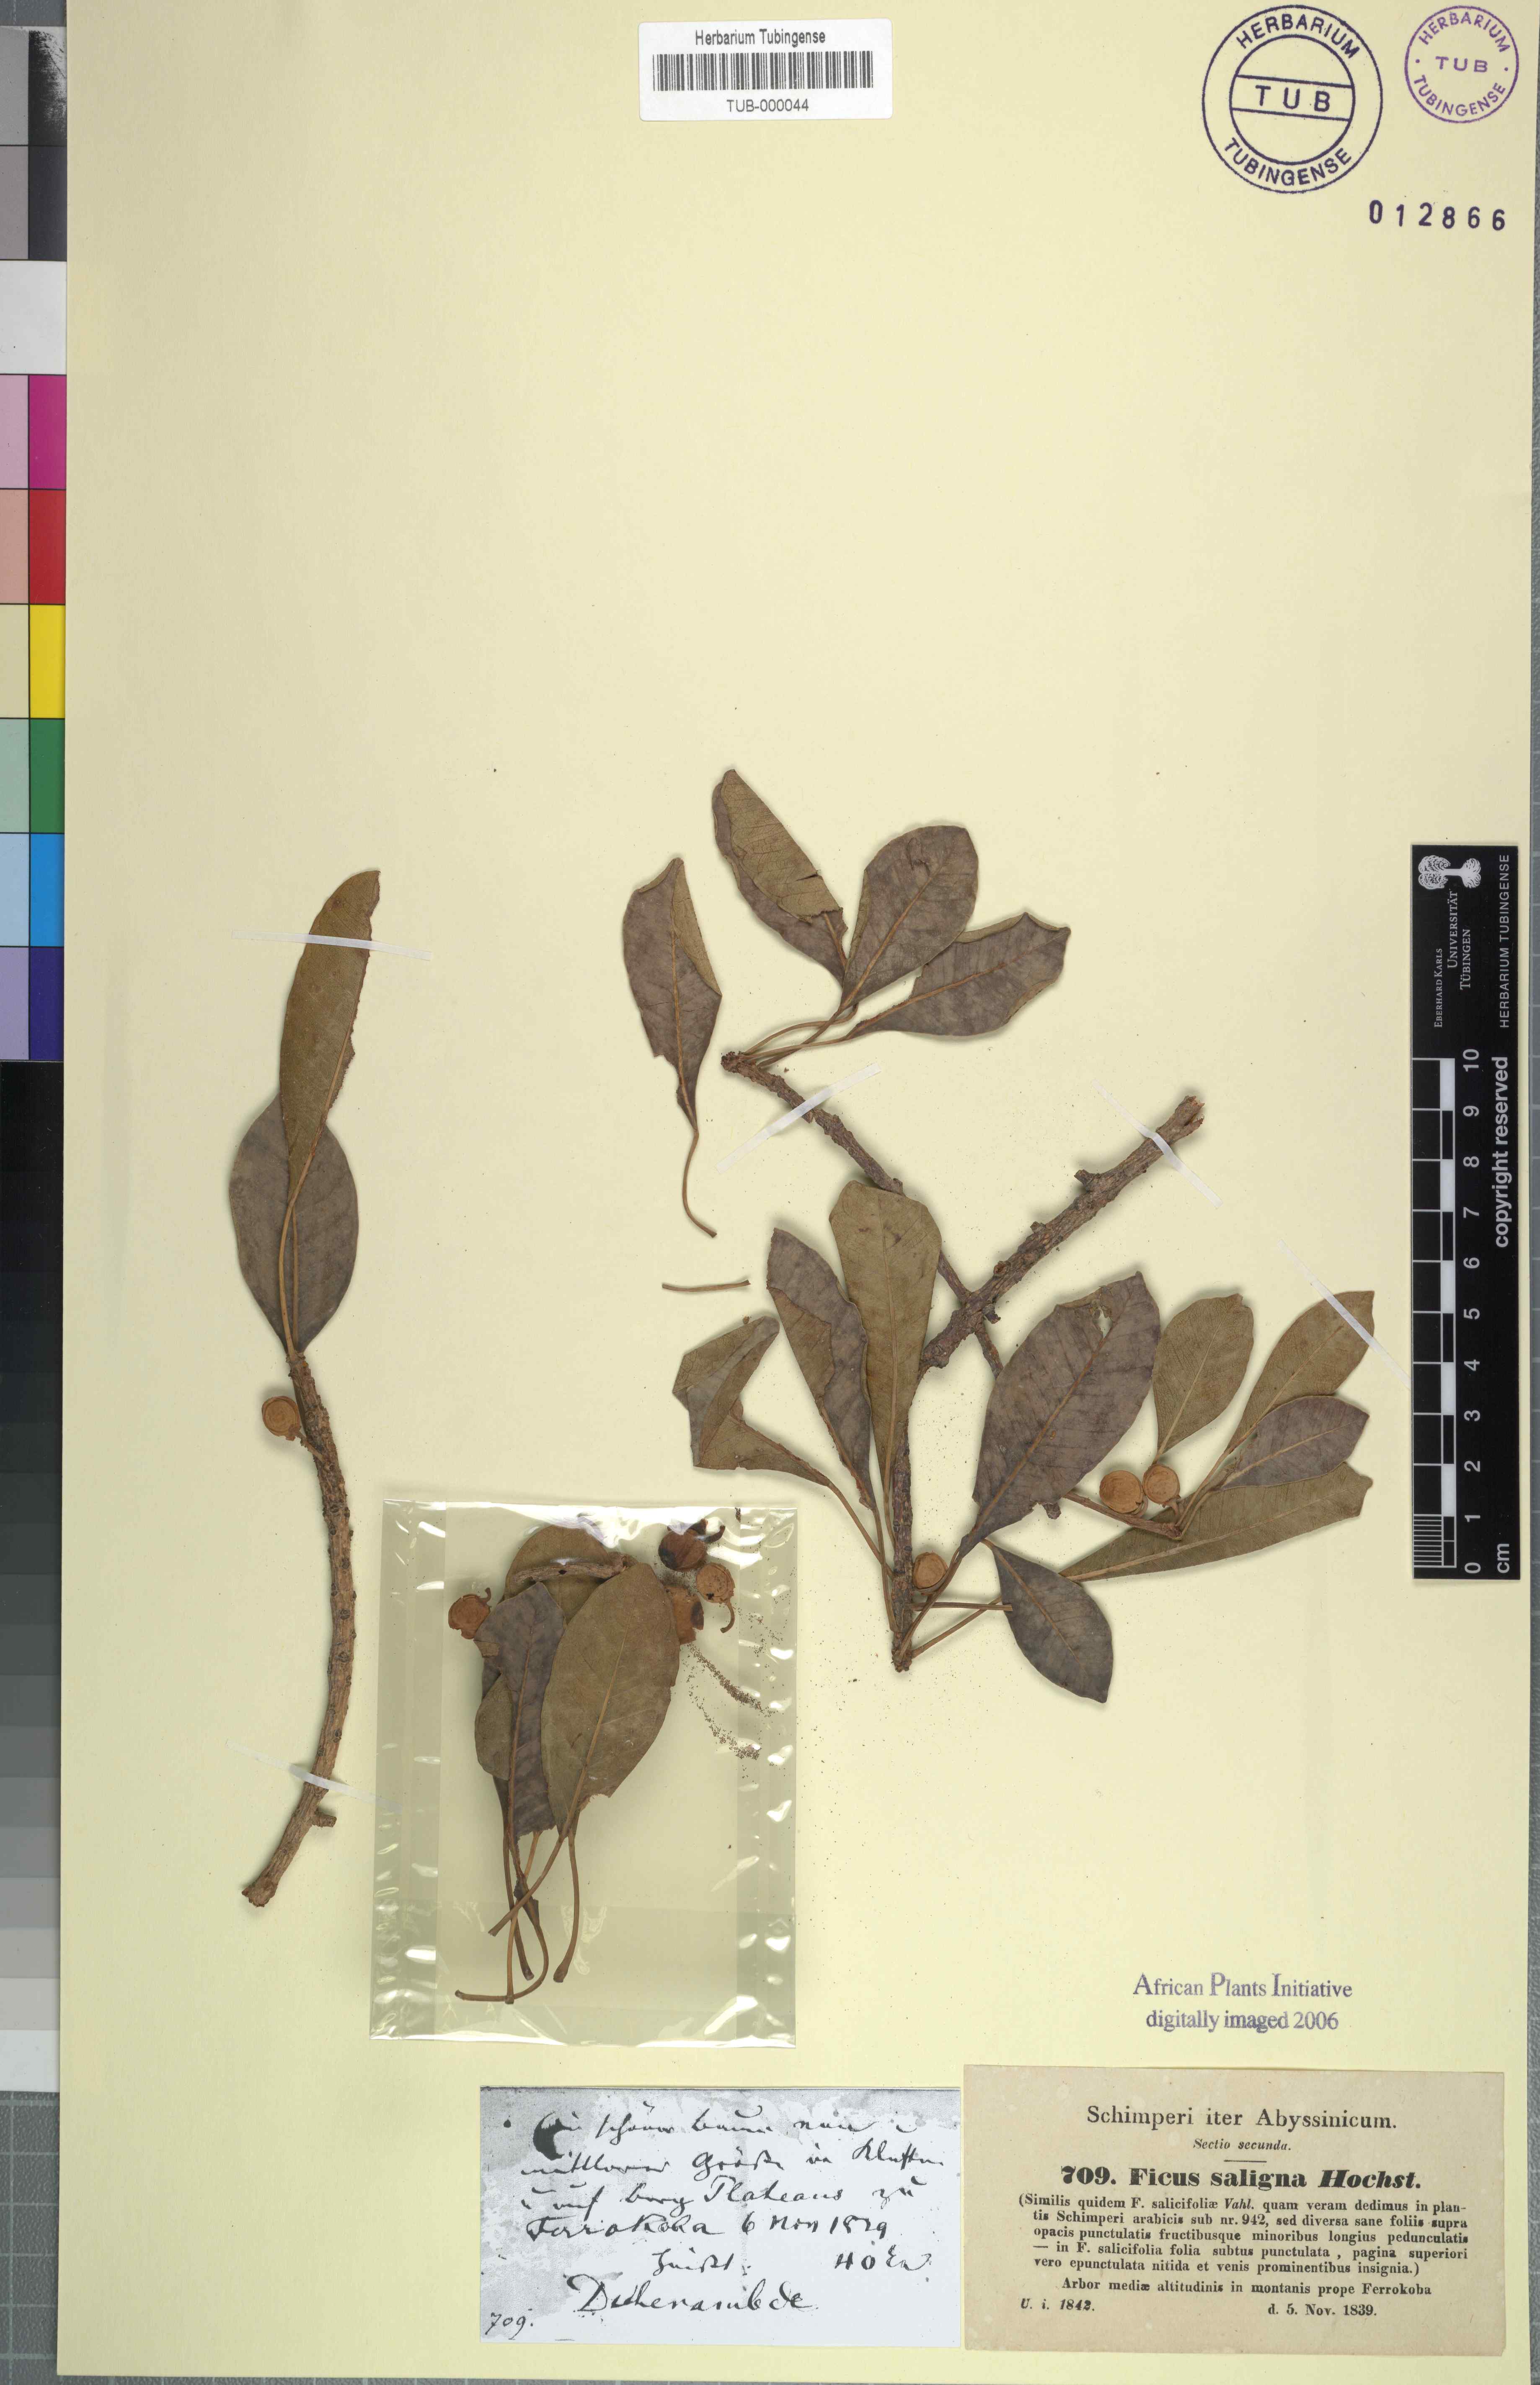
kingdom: Plantae
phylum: Tracheophyta
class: Magnoliopsida
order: Rosales
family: Moraceae
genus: Ficus
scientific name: Ficus thonningii
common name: Fig
